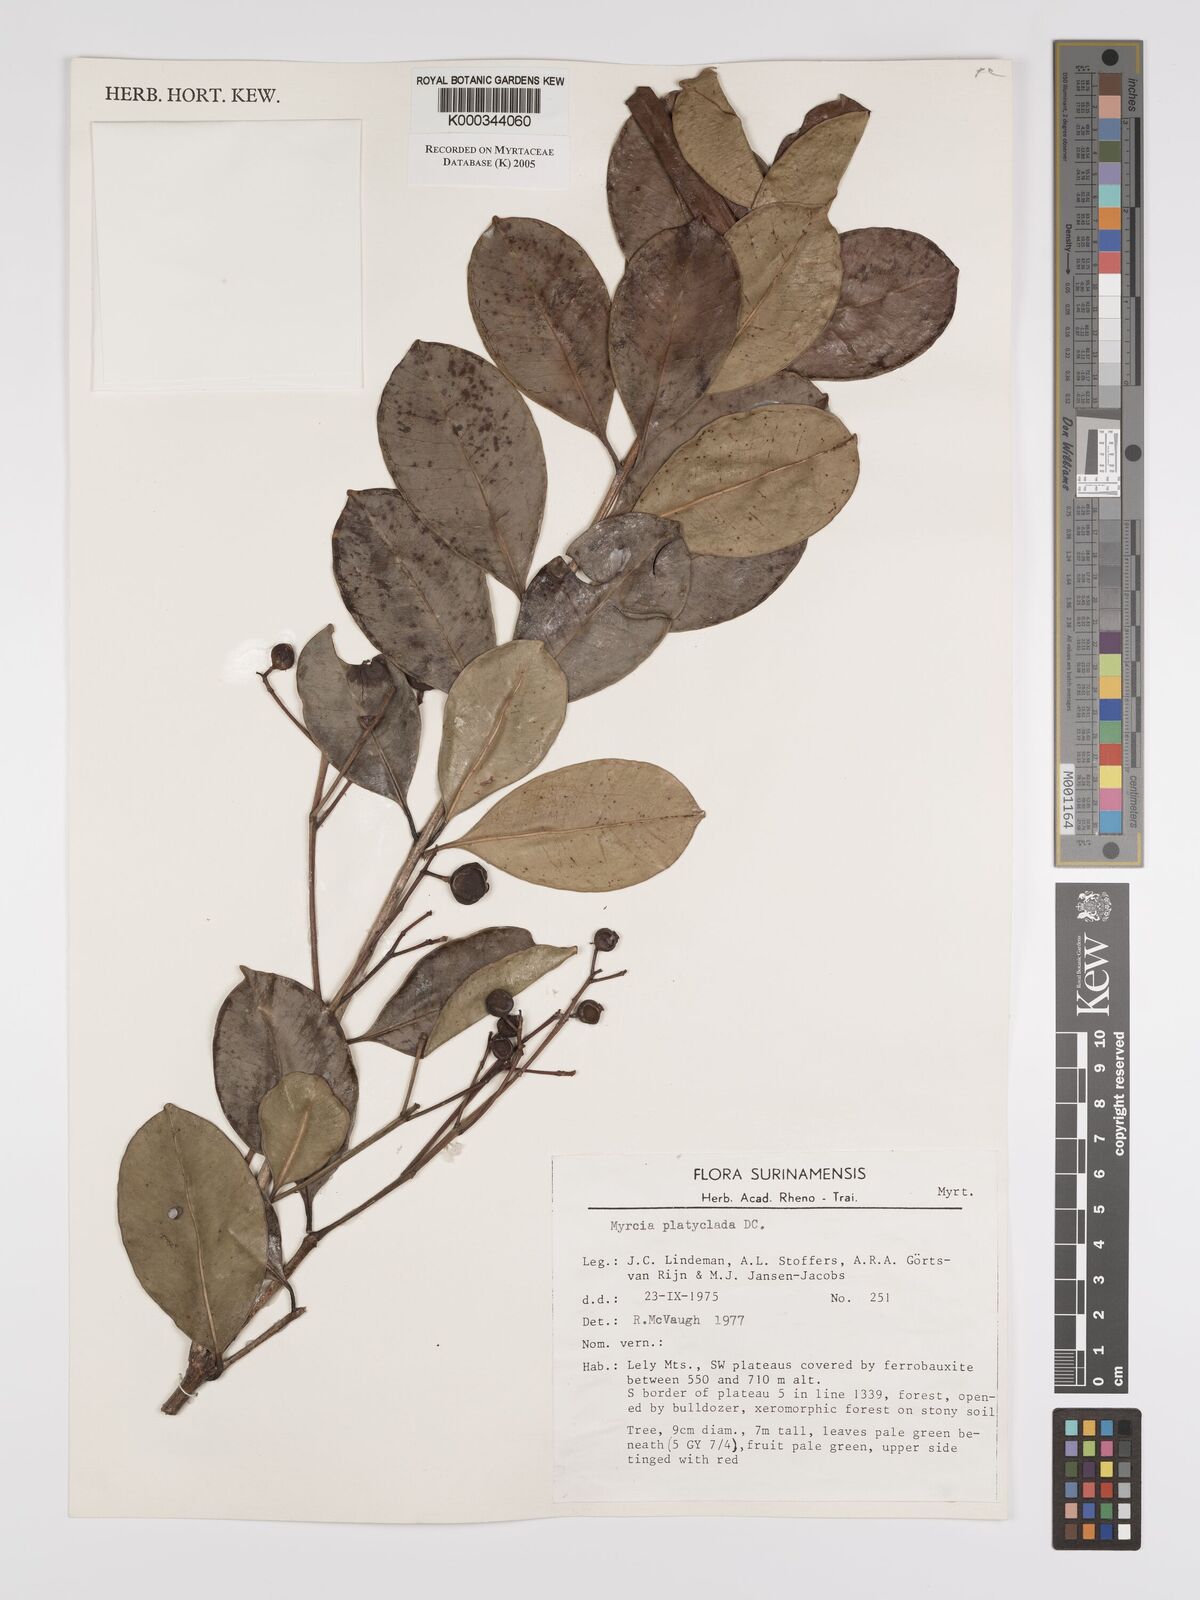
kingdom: Plantae
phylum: Tracheophyta
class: Magnoliopsida
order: Myrtales
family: Myrtaceae
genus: Myrcia
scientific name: Myrcia platyclada
